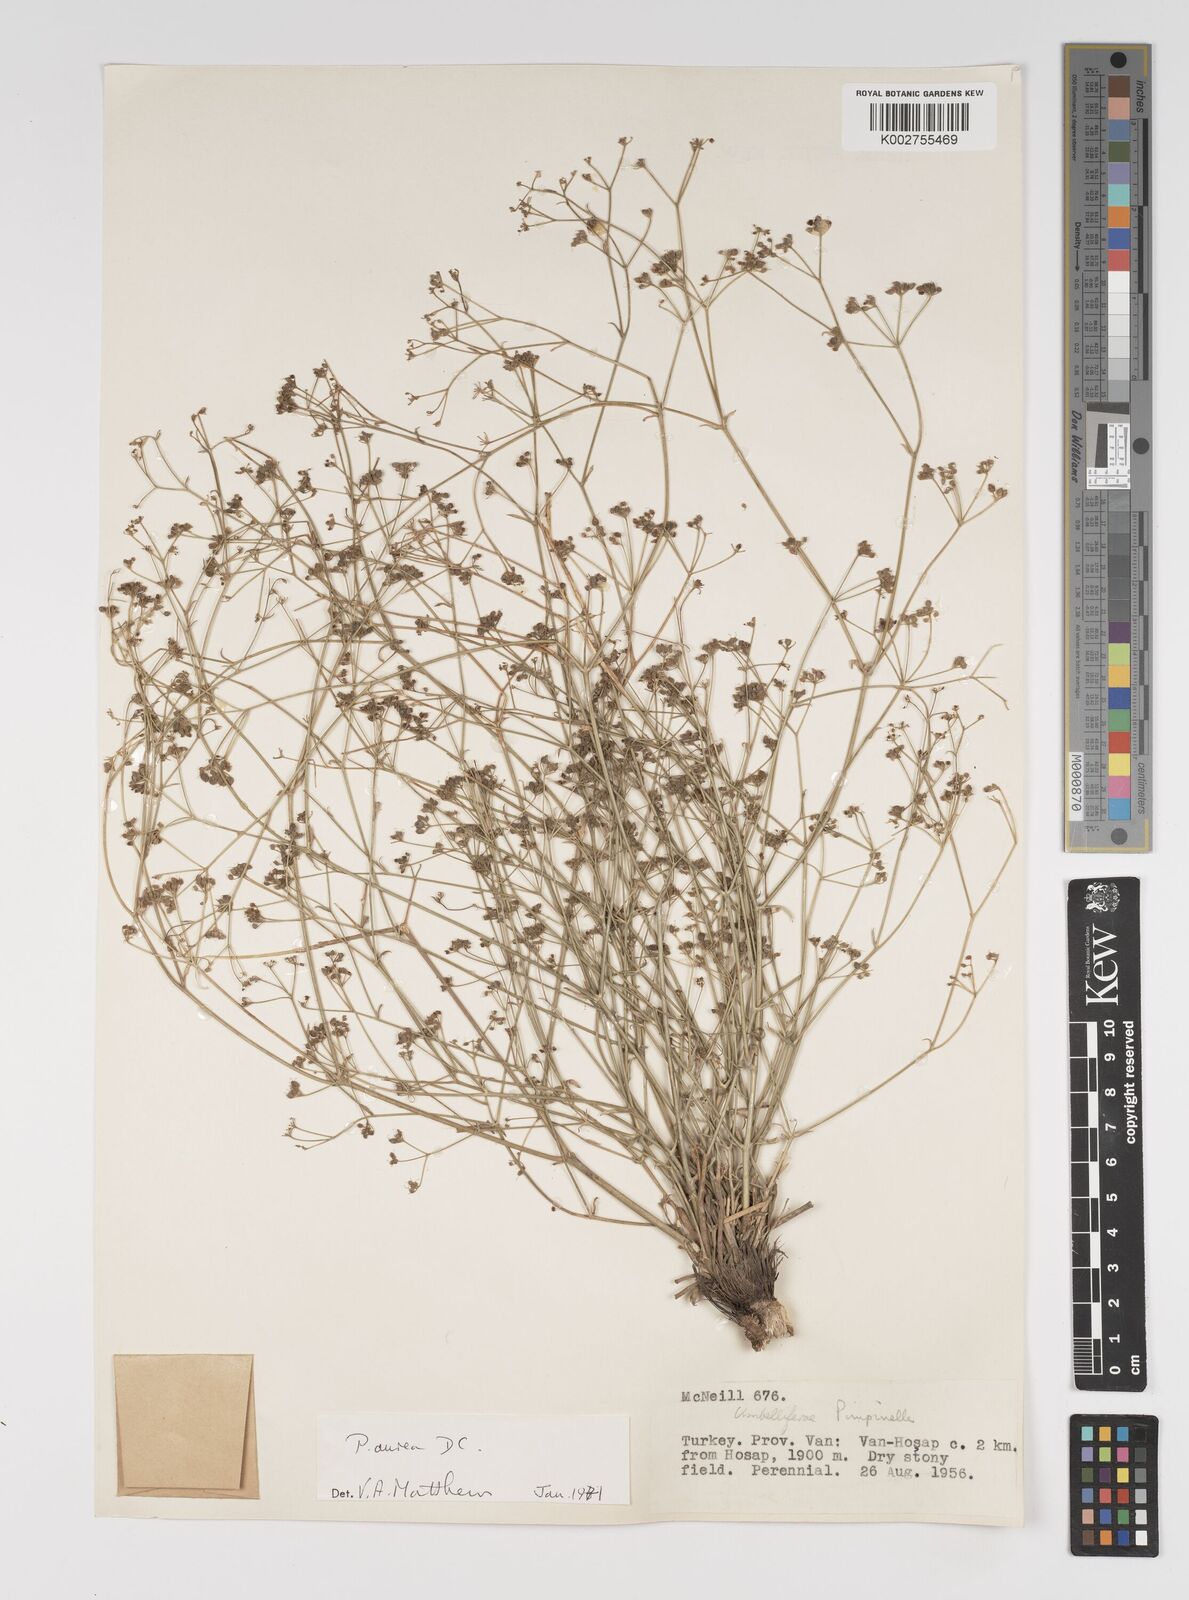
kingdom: Plantae
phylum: Tracheophyta
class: Magnoliopsida
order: Apiales
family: Apiaceae
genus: Pimpinella
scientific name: Pimpinella aurea
